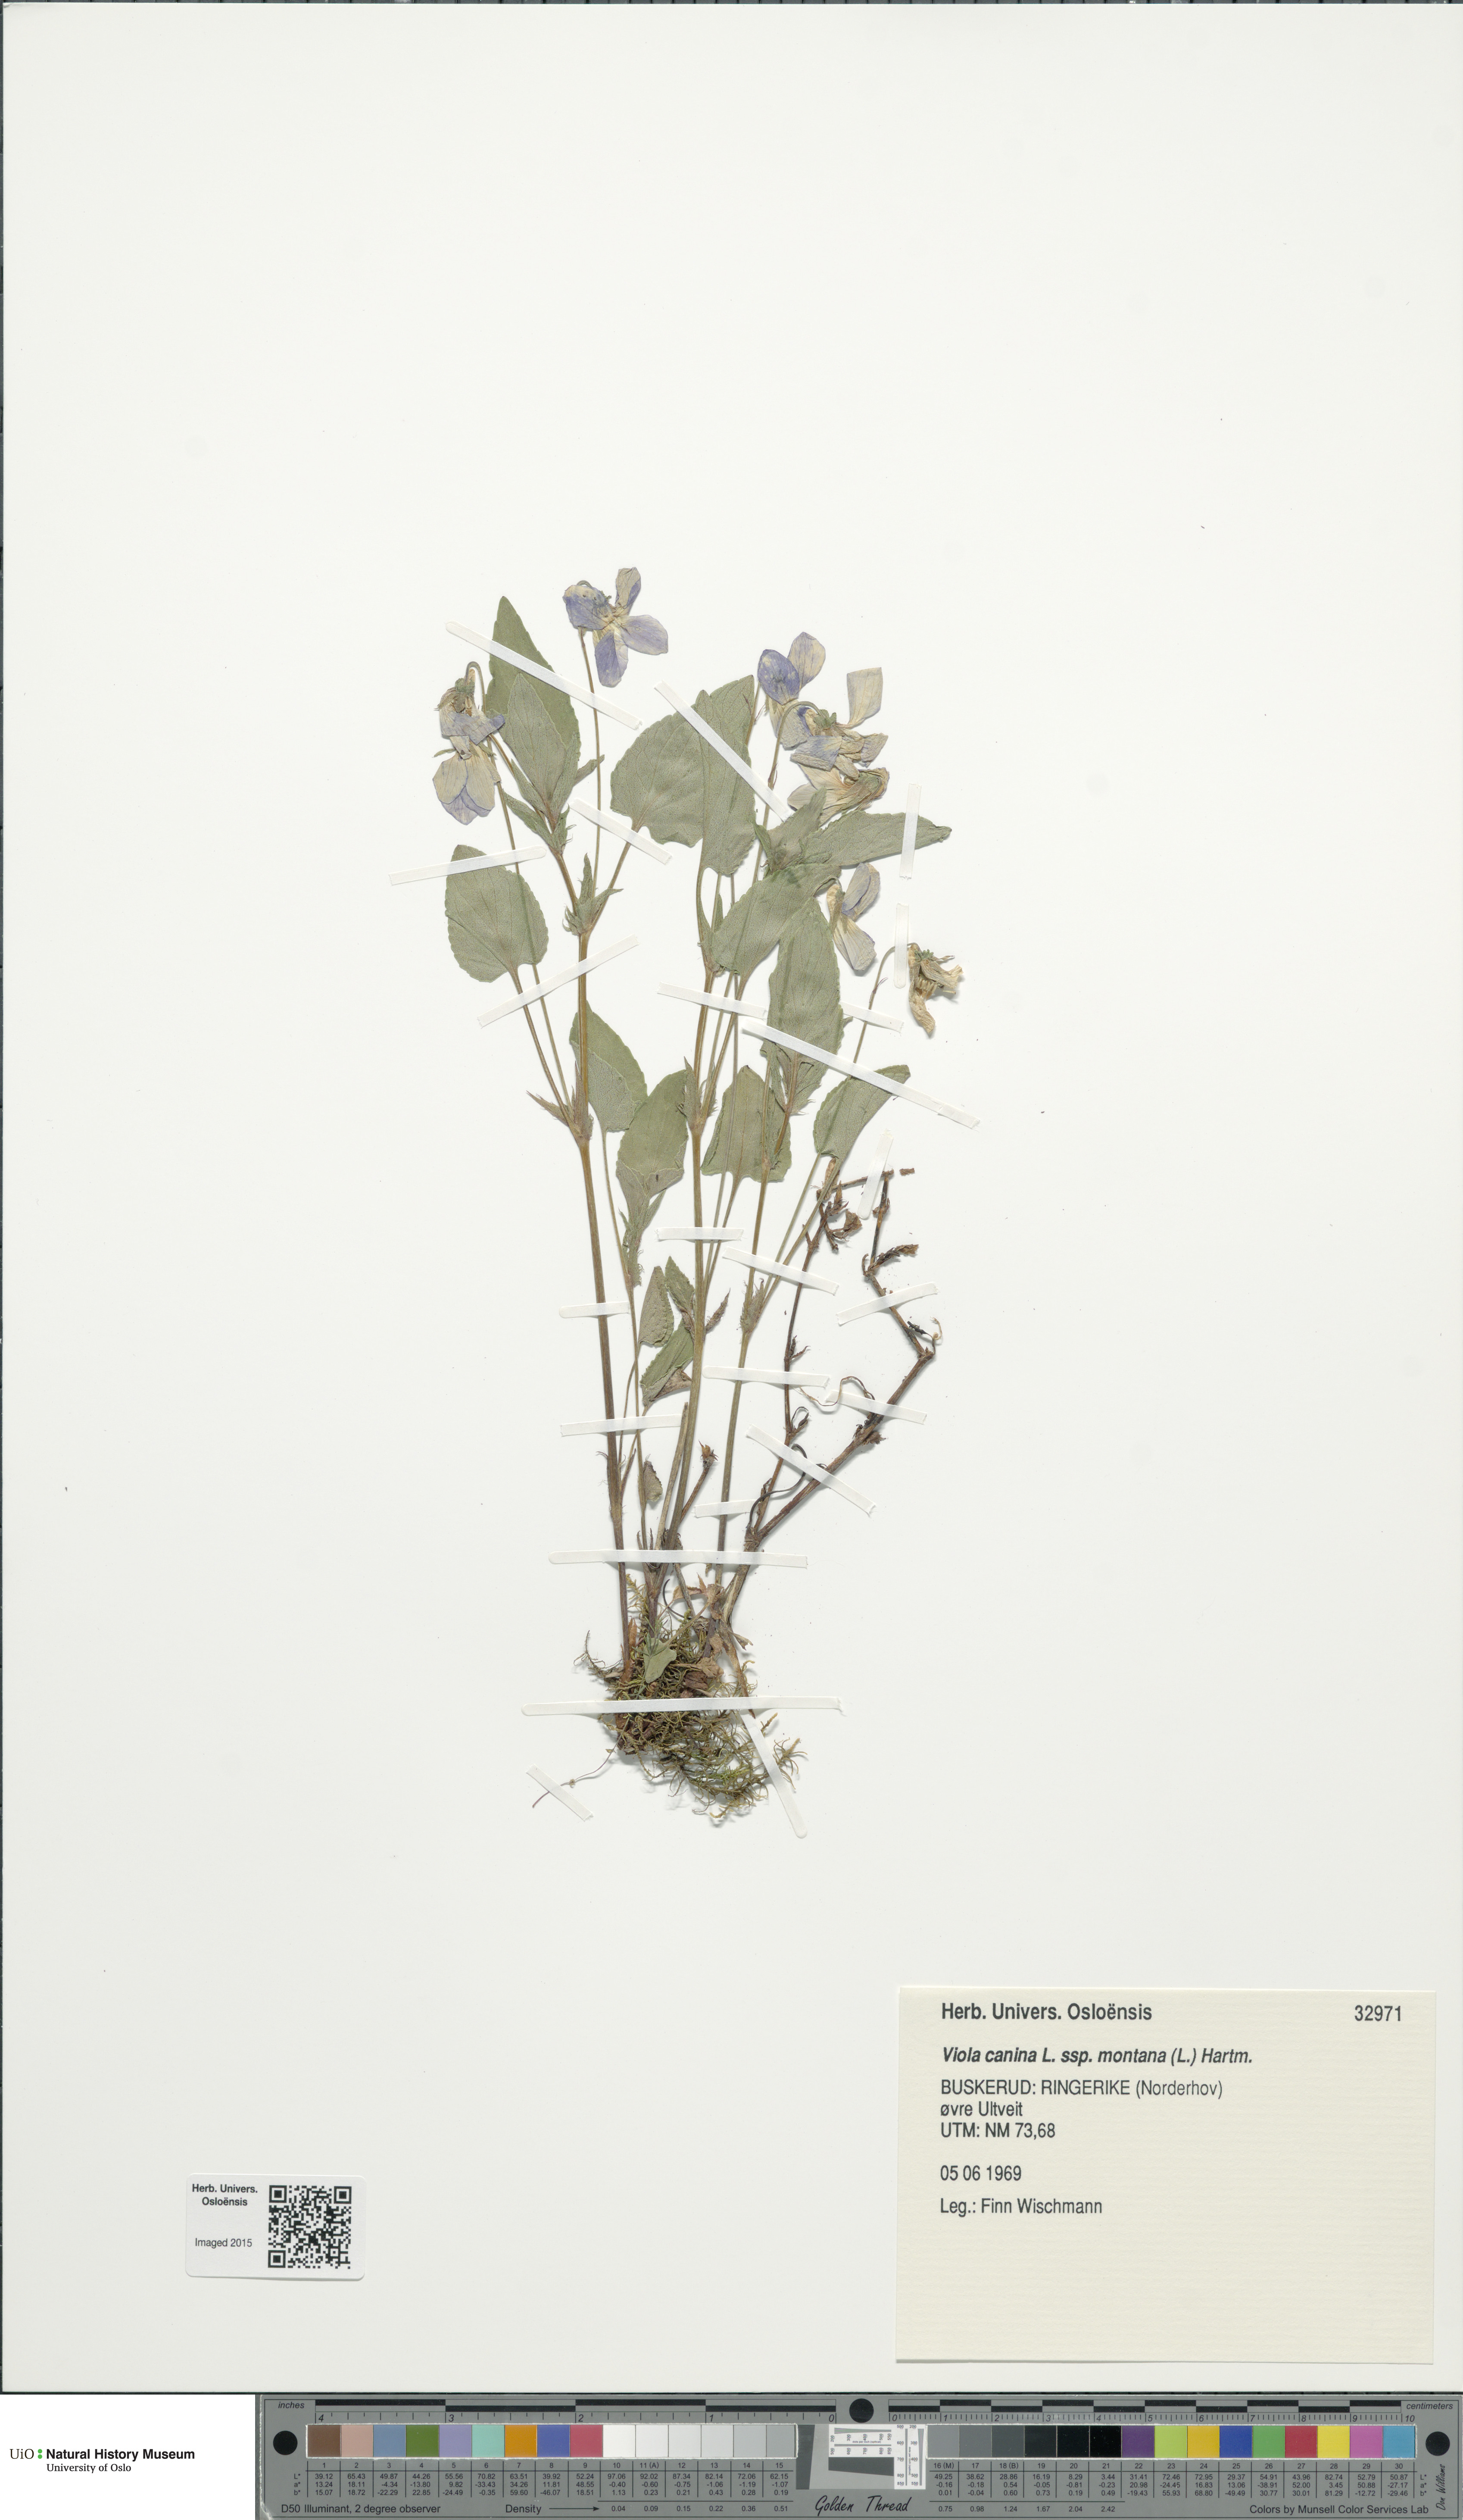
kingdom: Plantae
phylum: Tracheophyta
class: Magnoliopsida
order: Malpighiales
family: Violaceae
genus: Viola
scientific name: Viola ruppii
